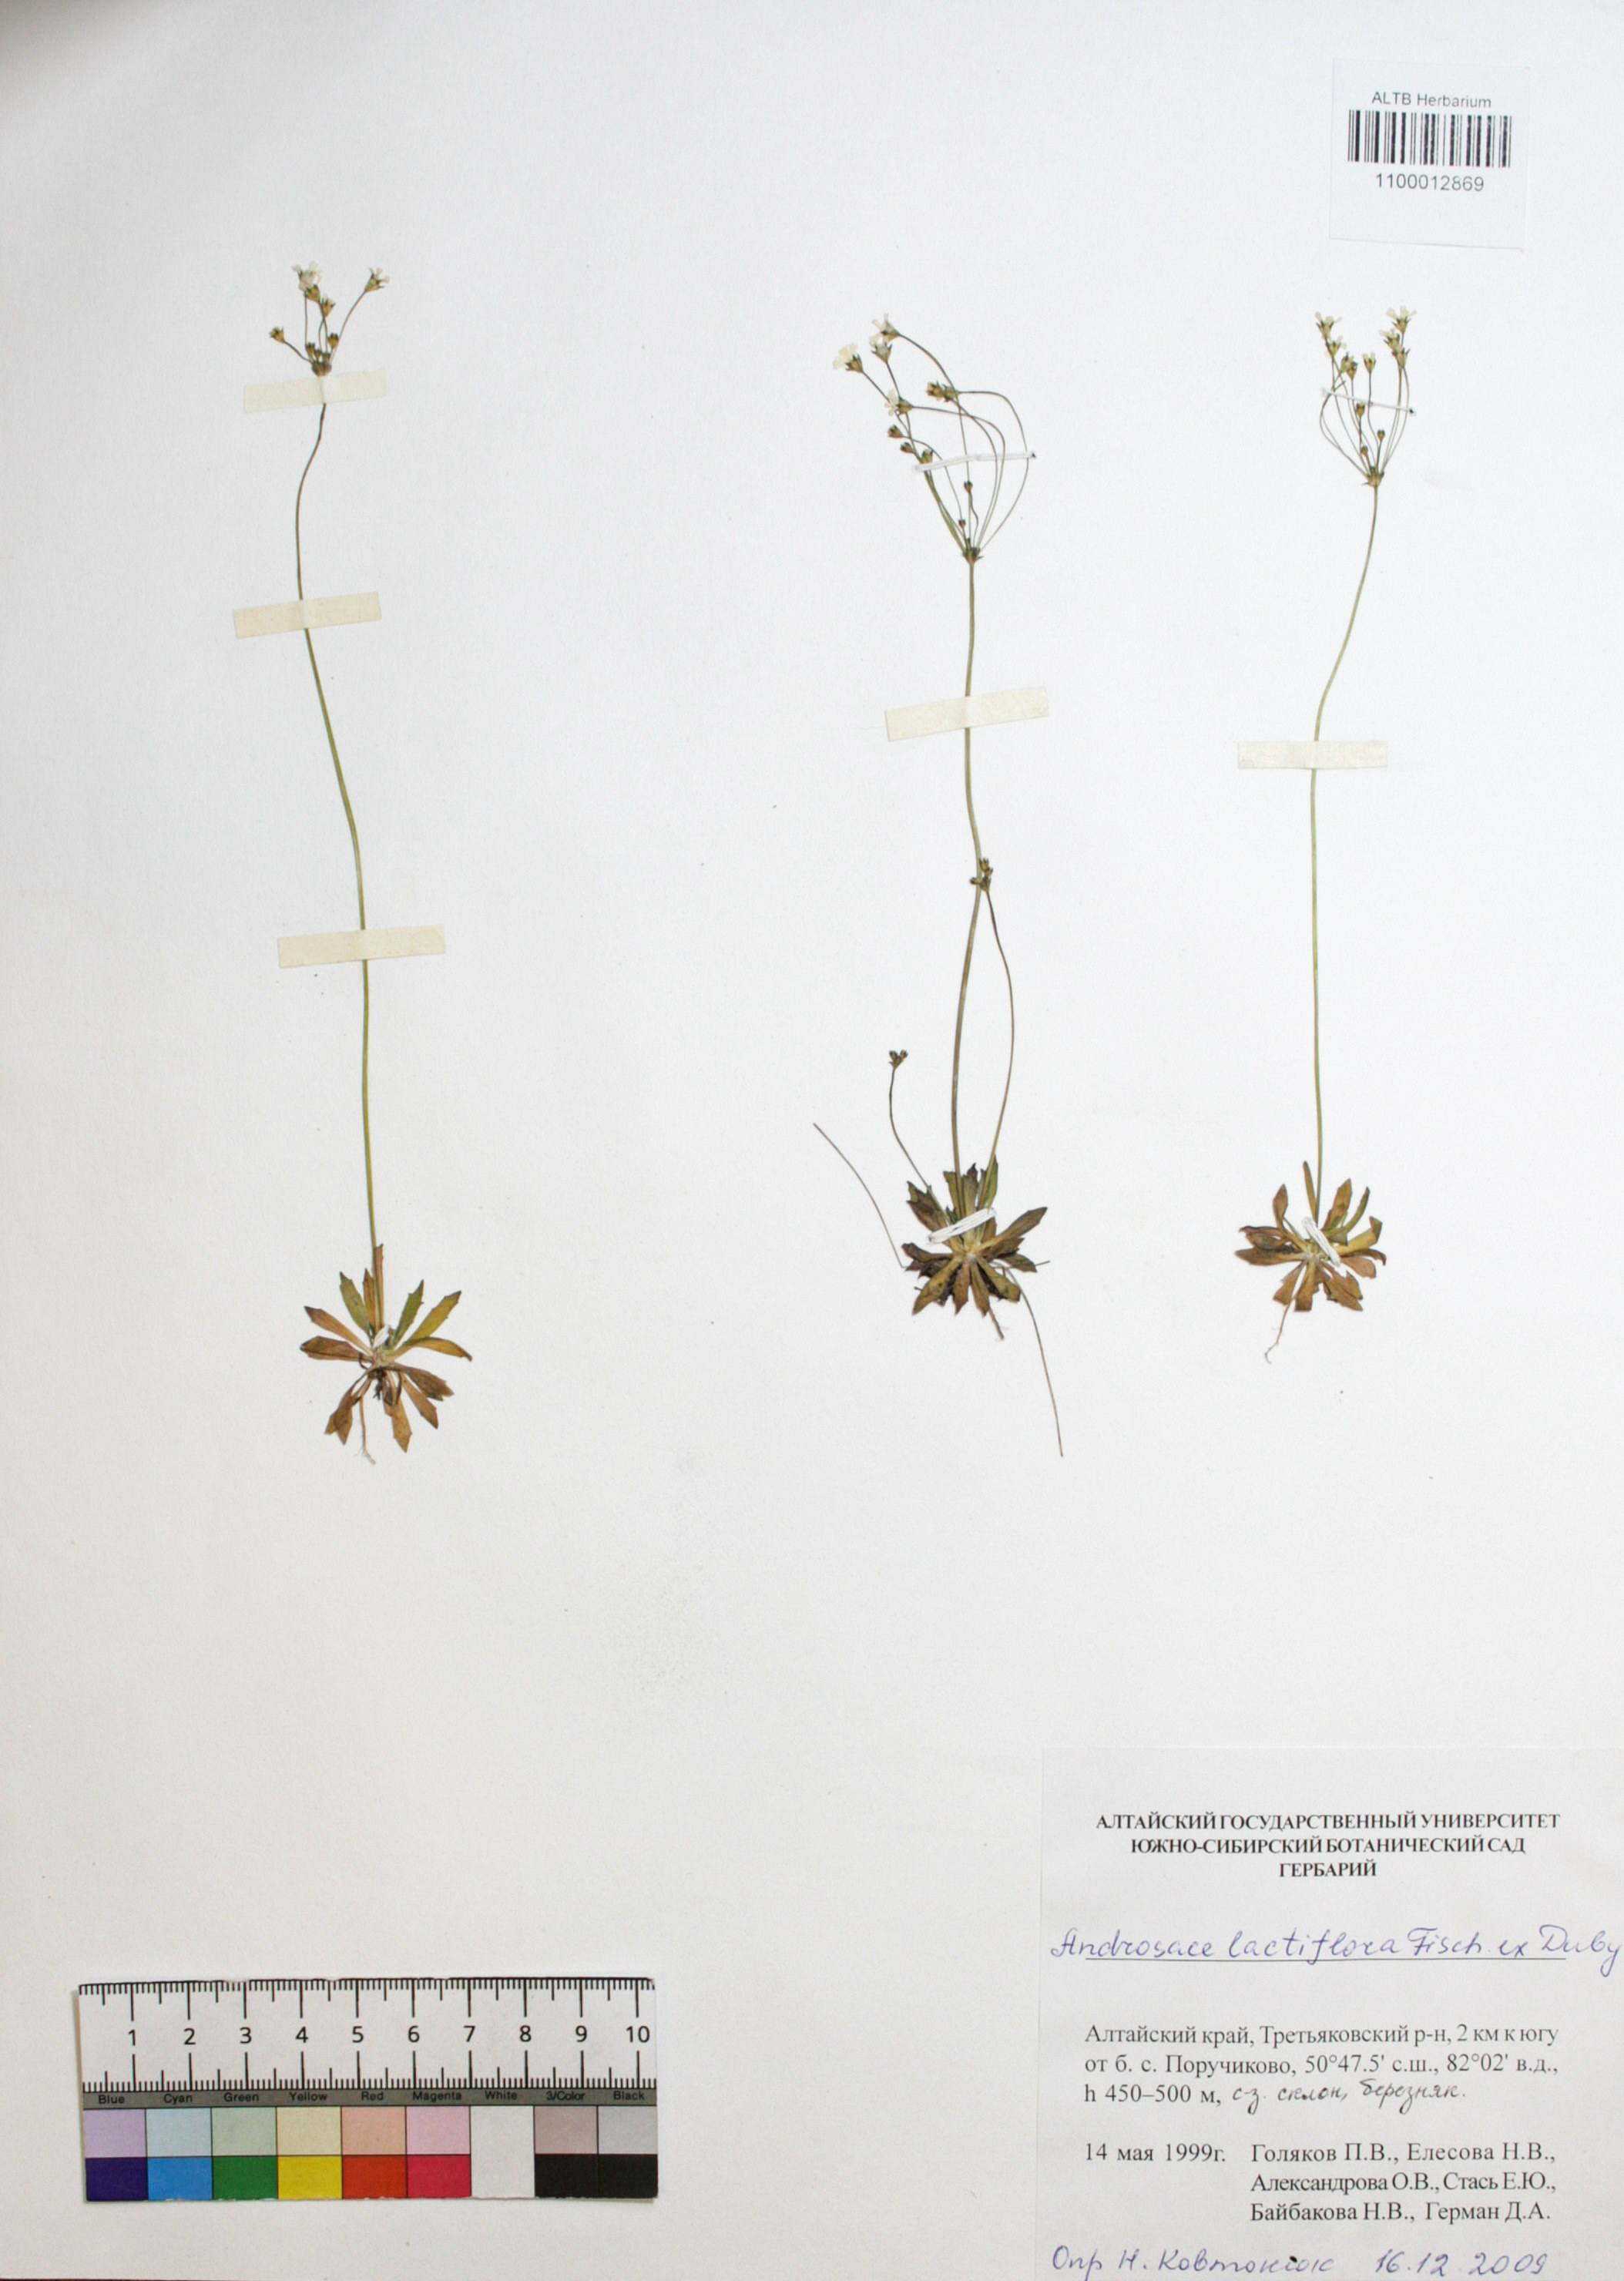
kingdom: Plantae
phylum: Tracheophyta
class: Magnoliopsida
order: Ericales
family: Primulaceae
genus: Androsace
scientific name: Androsace lactiflora
